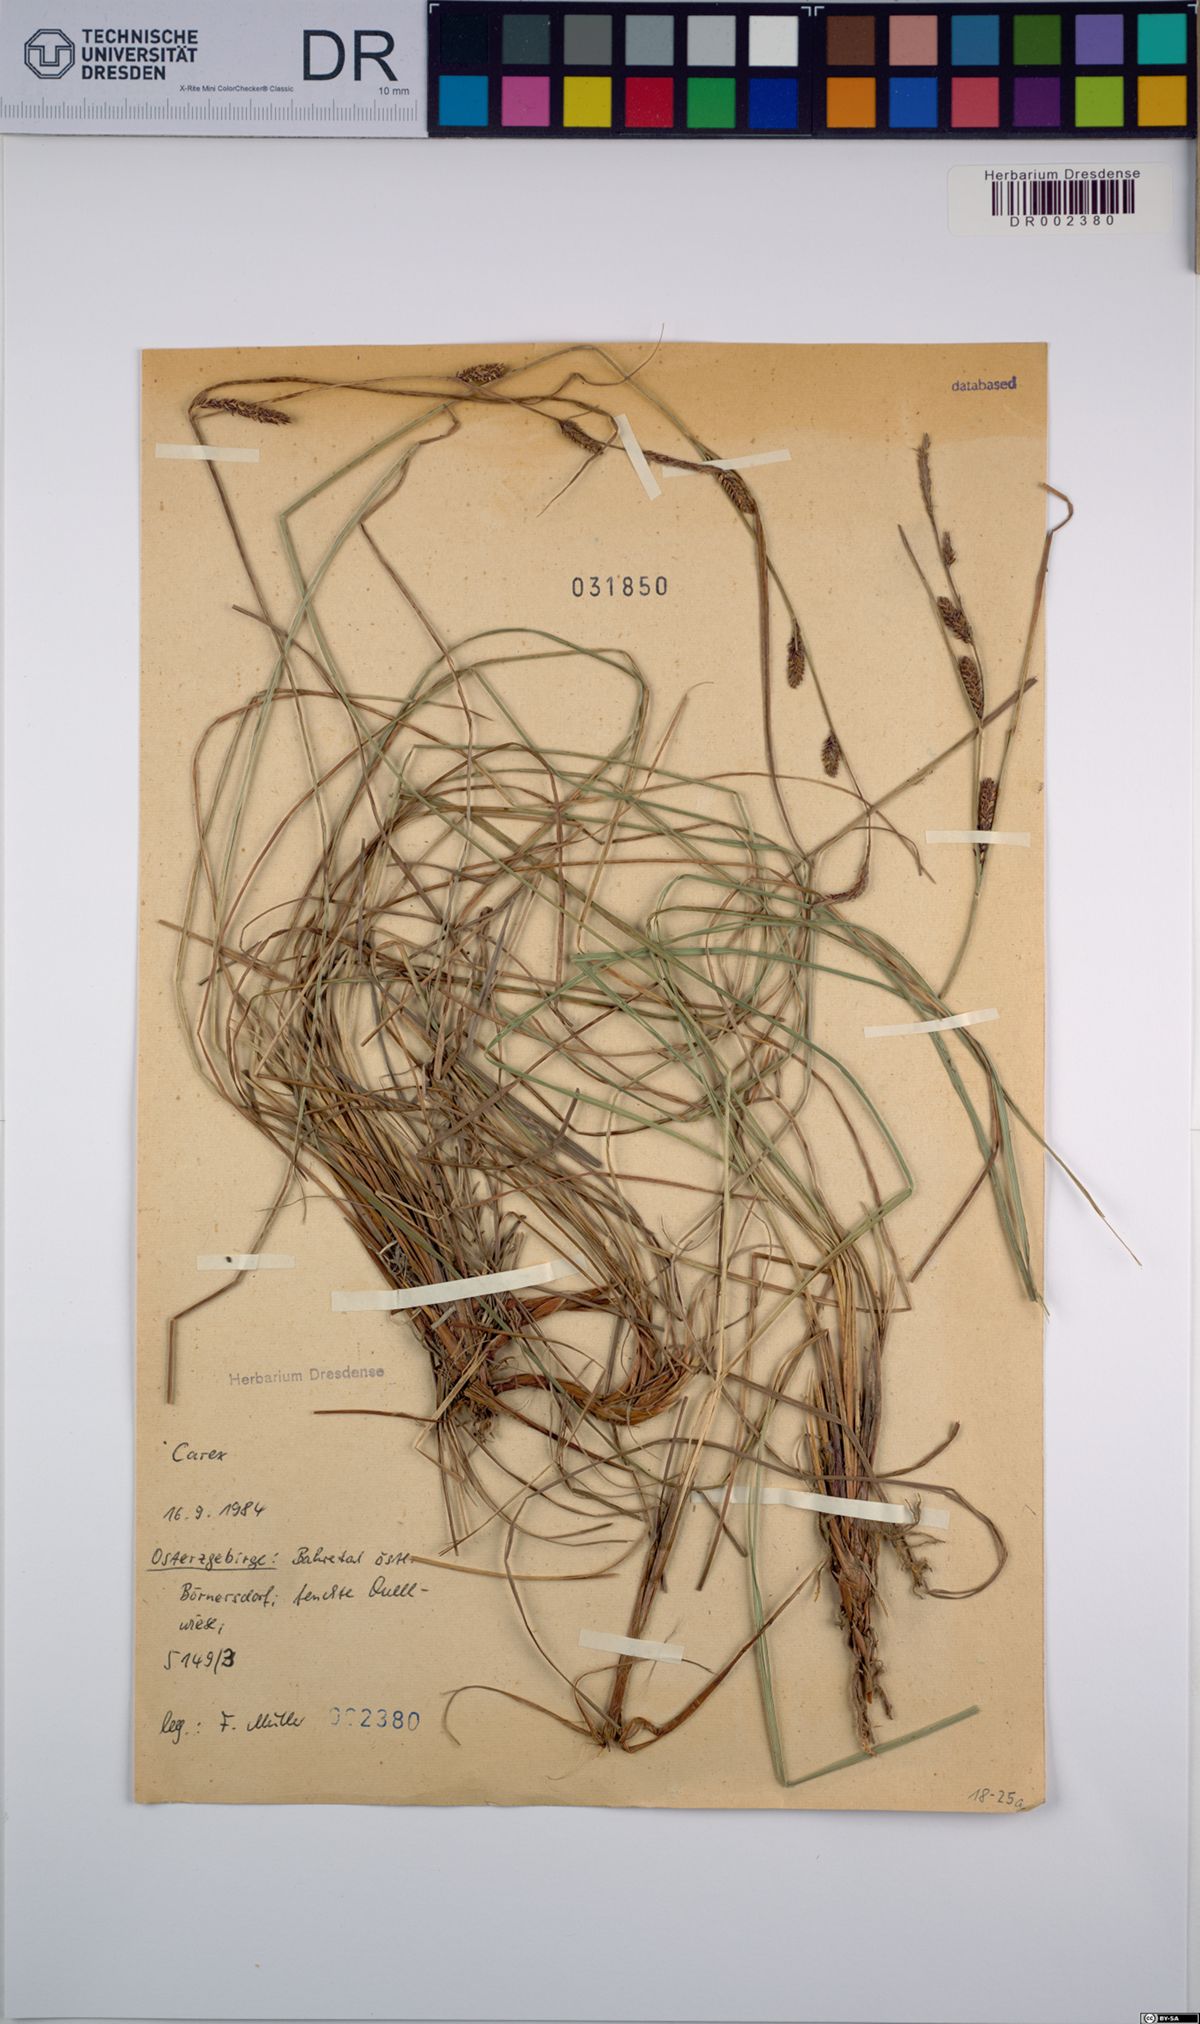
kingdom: Plantae
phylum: Tracheophyta
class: Liliopsida
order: Poales
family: Cyperaceae
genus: Carex
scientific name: Carex
